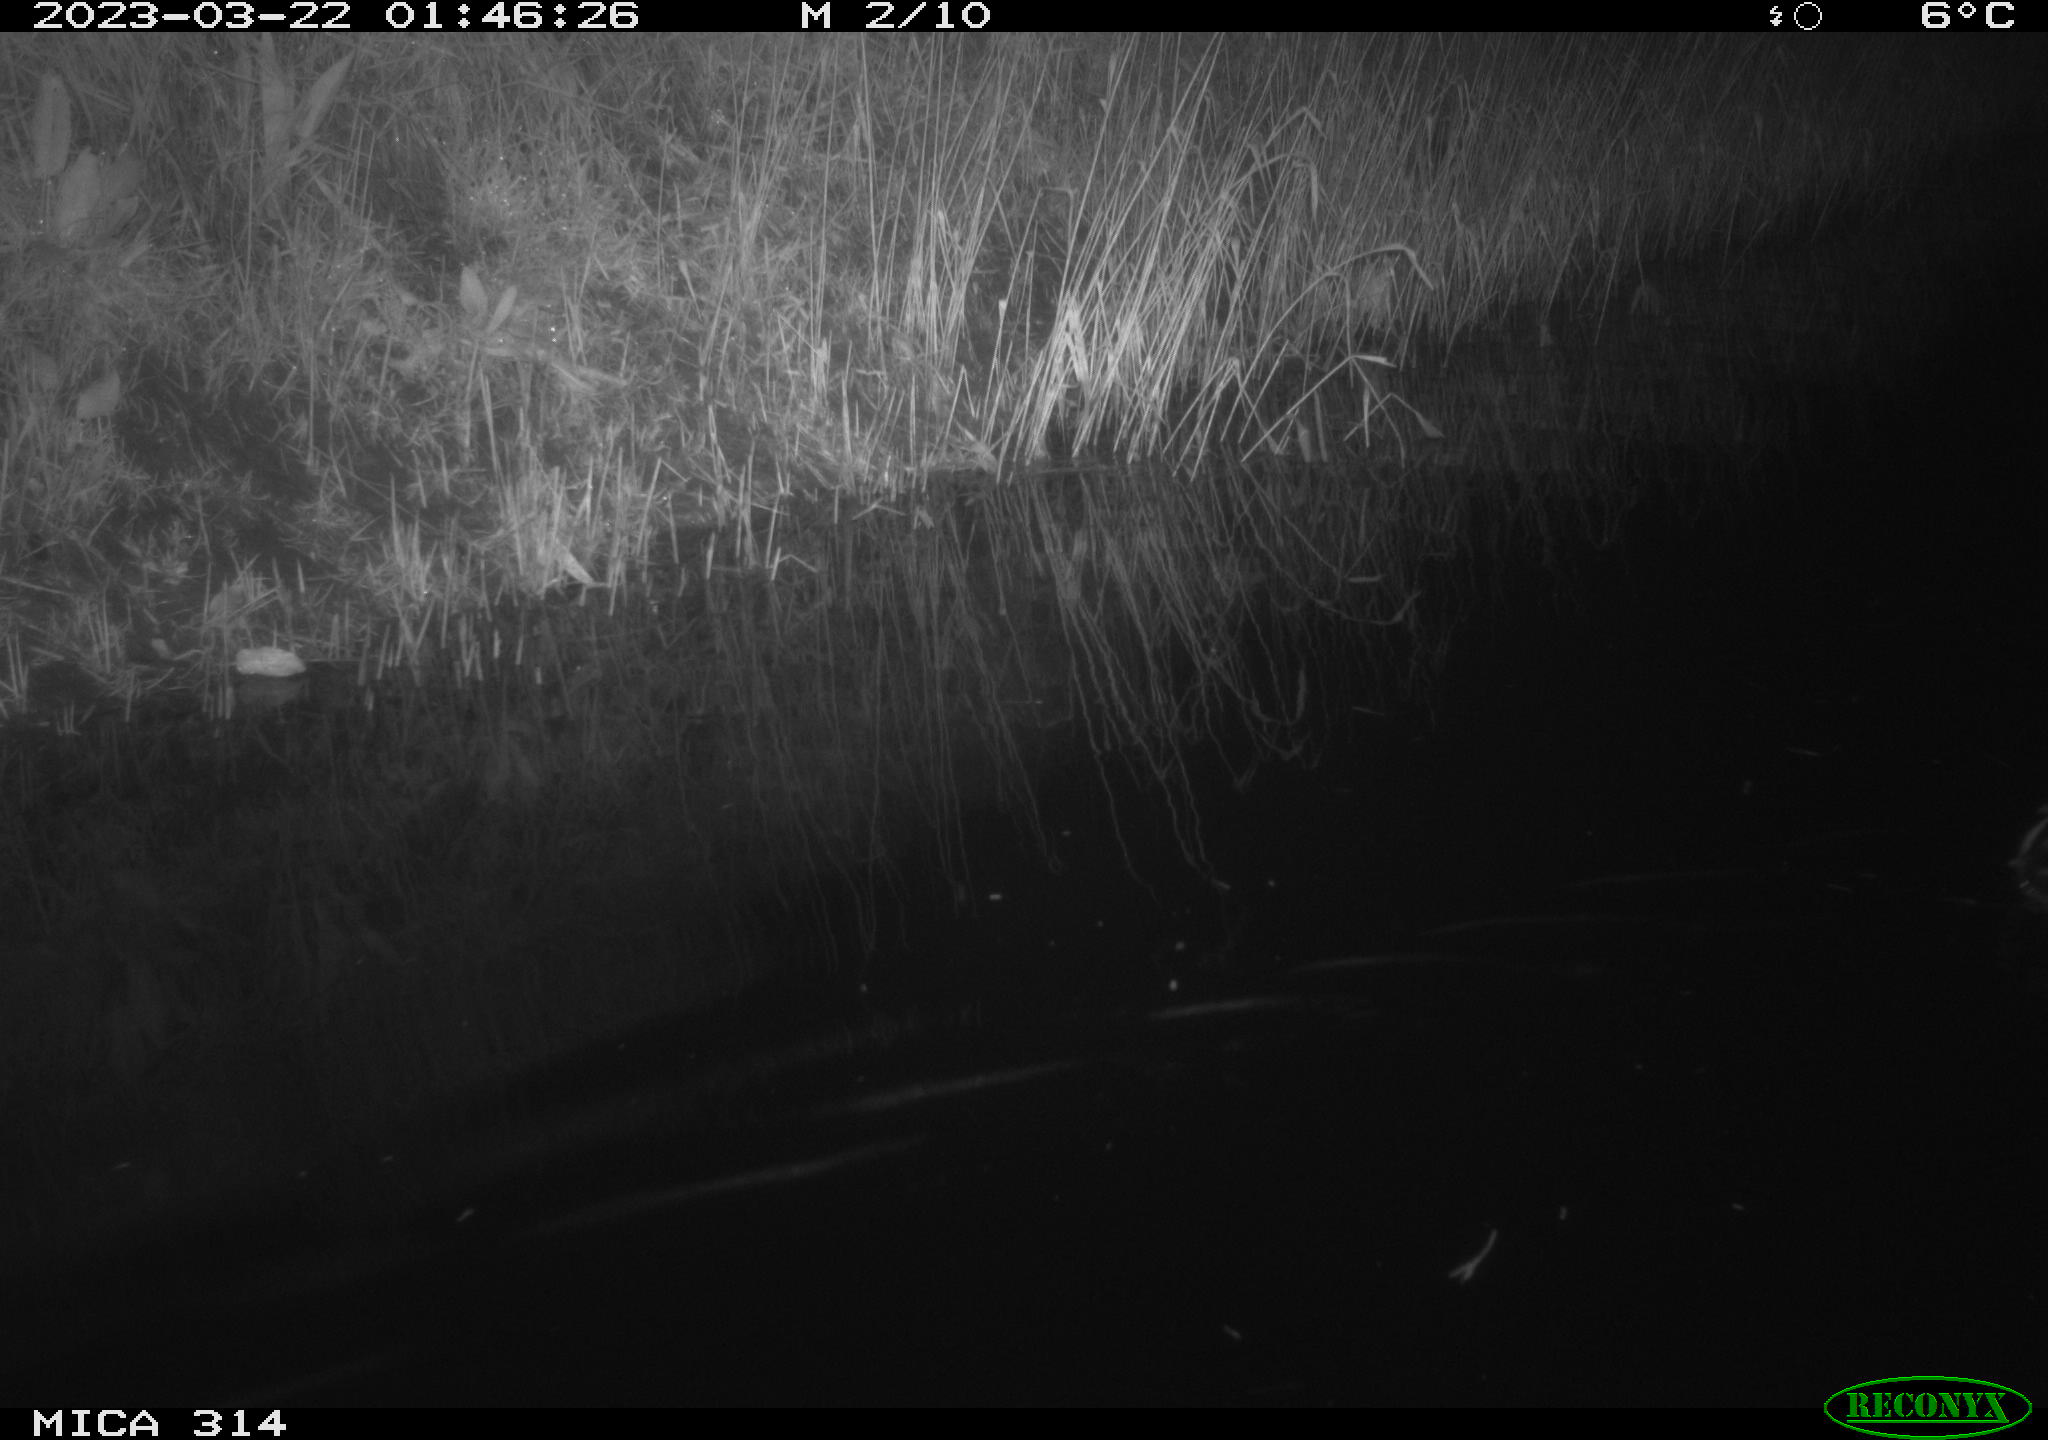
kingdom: Animalia
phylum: Chordata
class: Aves
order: Anseriformes
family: Anatidae
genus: Anas
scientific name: Anas
